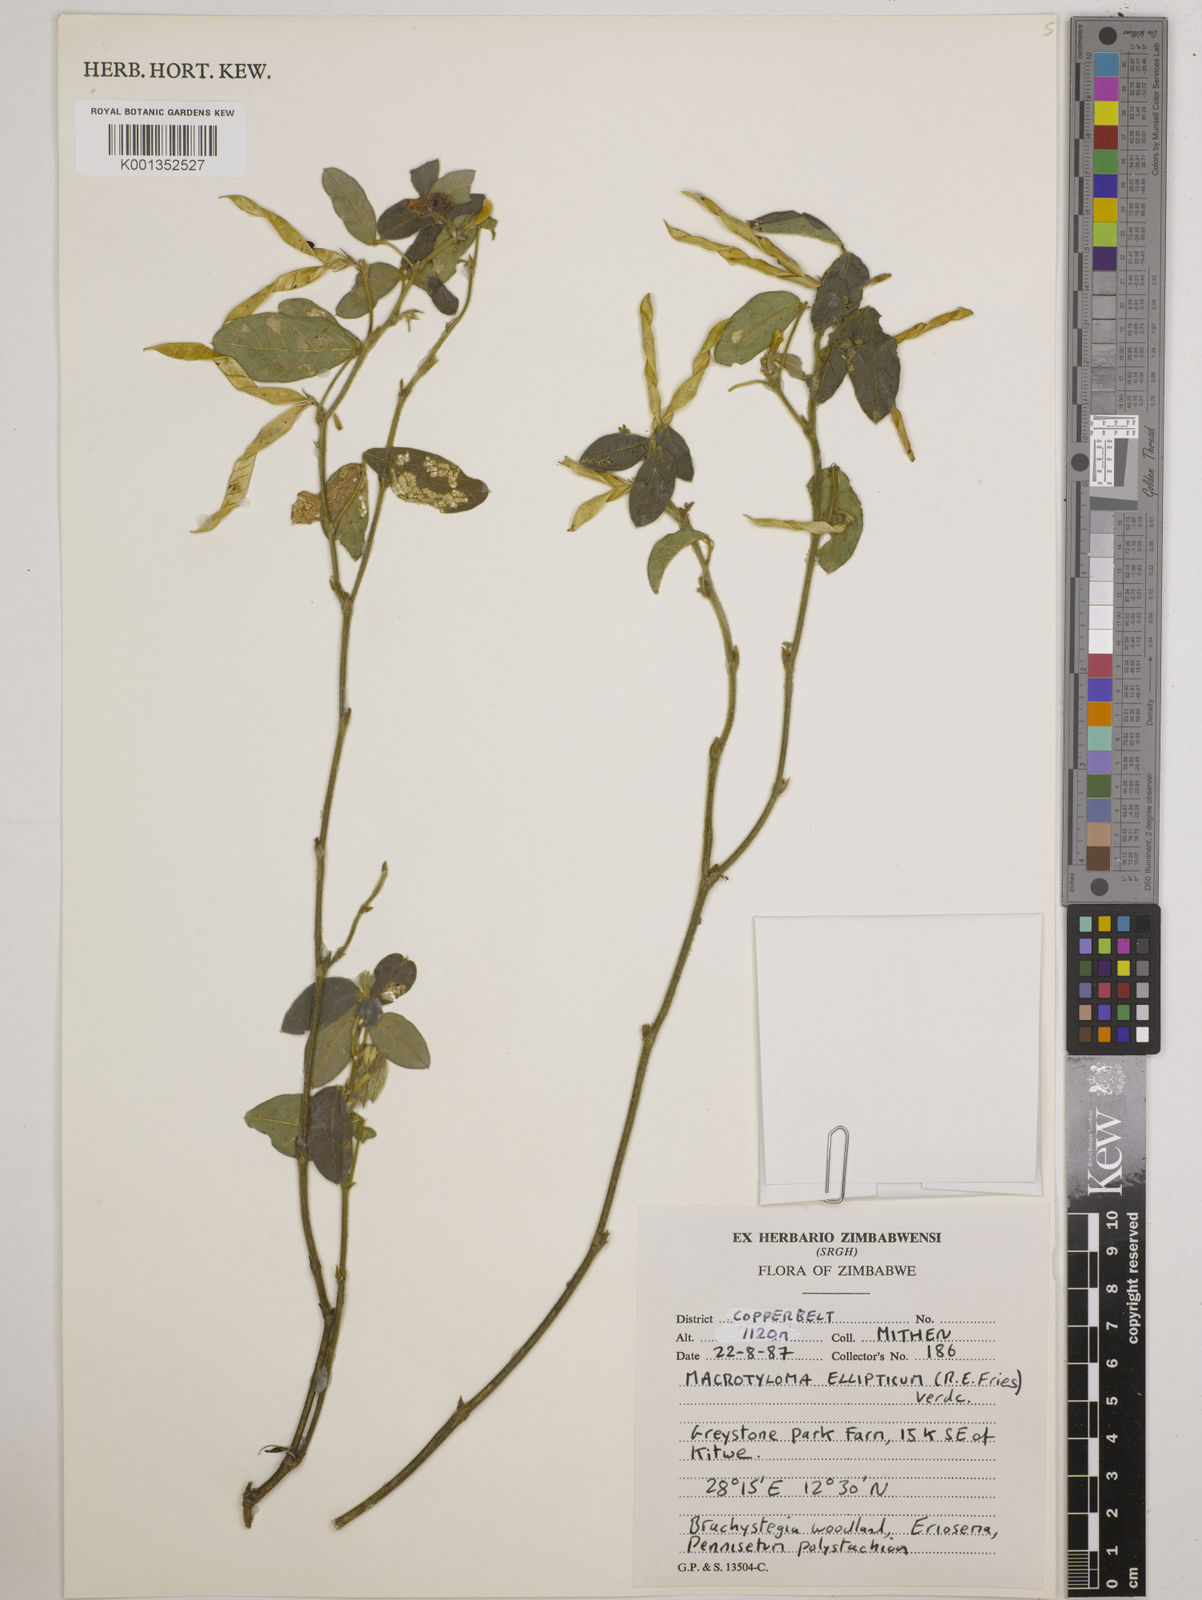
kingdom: Plantae
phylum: Tracheophyta
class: Magnoliopsida
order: Fabales
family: Fabaceae
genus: Macrotyloma
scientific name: Macrotyloma ellipticum
